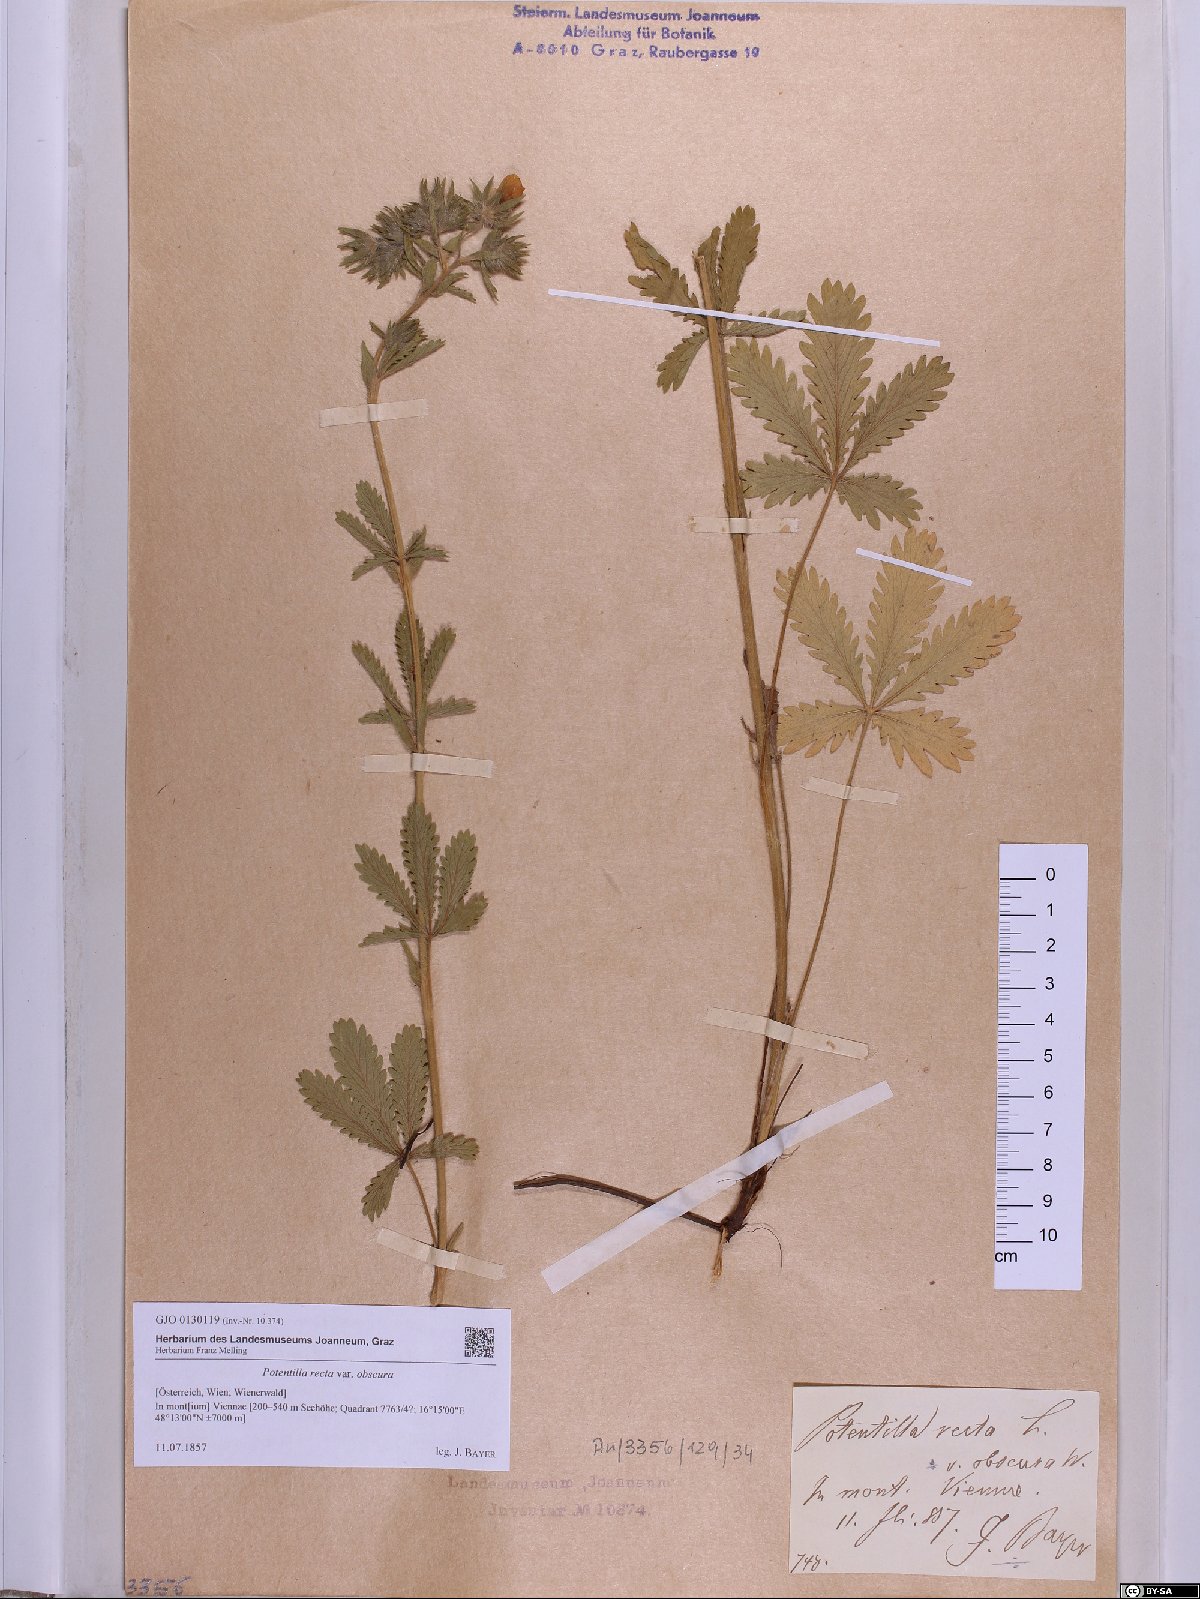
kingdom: Plantae
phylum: Tracheophyta
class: Magnoliopsida
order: Rosales
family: Rosaceae
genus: Potentilla
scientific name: Potentilla recta
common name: Sulphur cinquefoil
